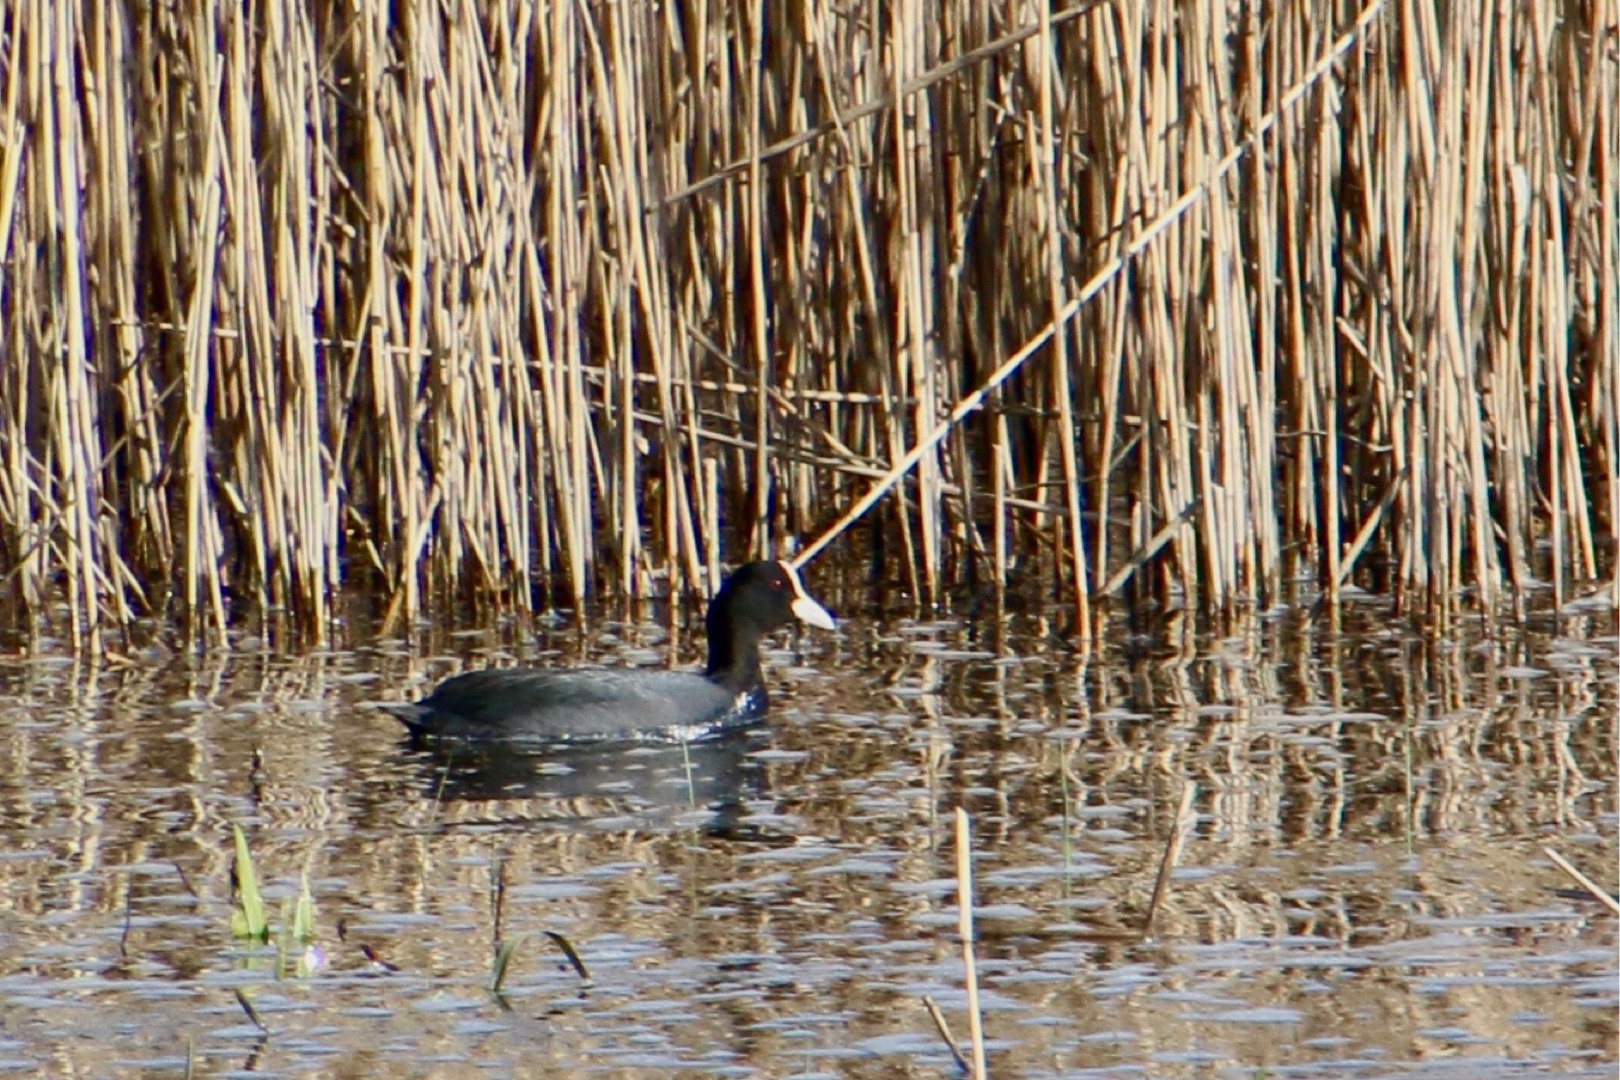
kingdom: Animalia
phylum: Chordata
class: Aves
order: Gruiformes
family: Rallidae
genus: Fulica
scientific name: Fulica atra
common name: Blishøne
